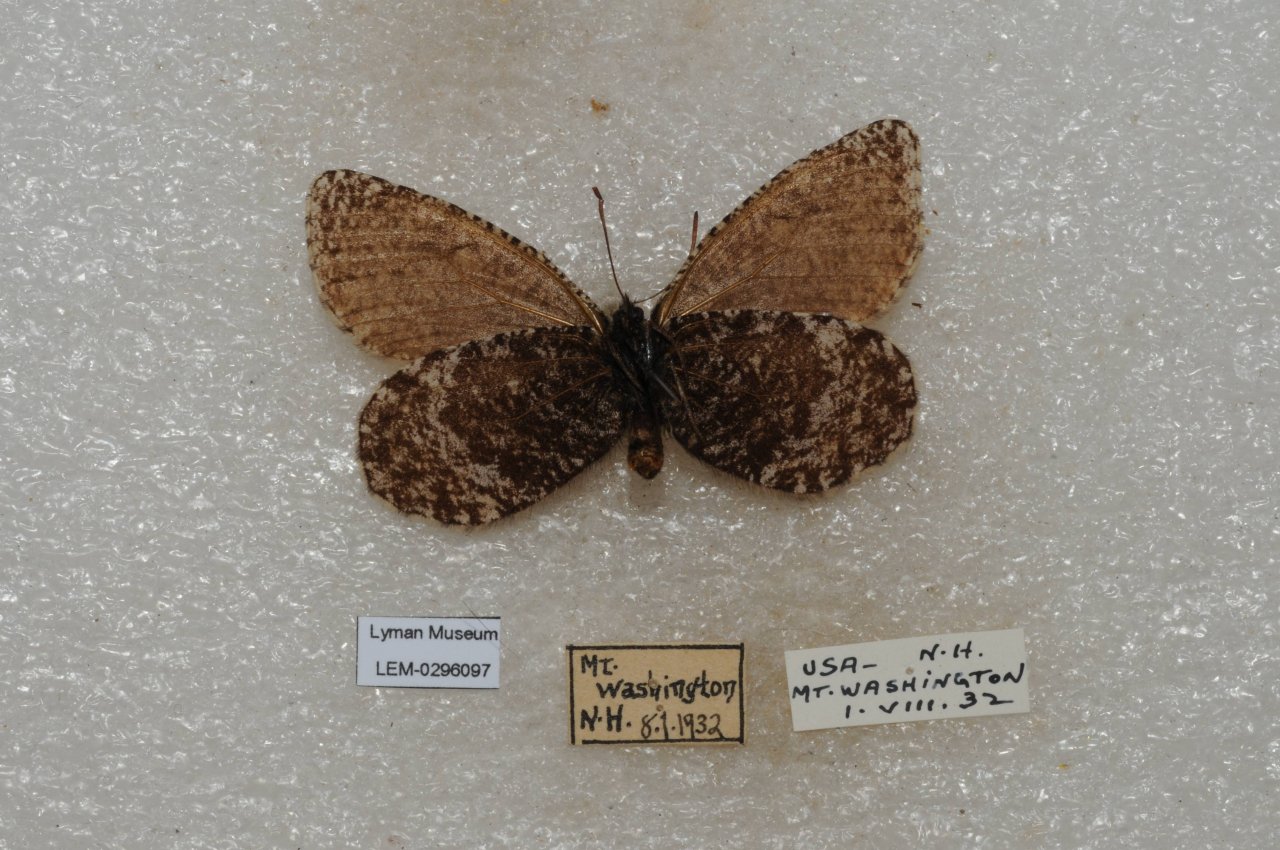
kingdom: Animalia
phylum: Arthropoda
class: Insecta
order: Lepidoptera
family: Nymphalidae
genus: Oeneis
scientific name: Oeneis melissa
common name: Melissa Arctic
